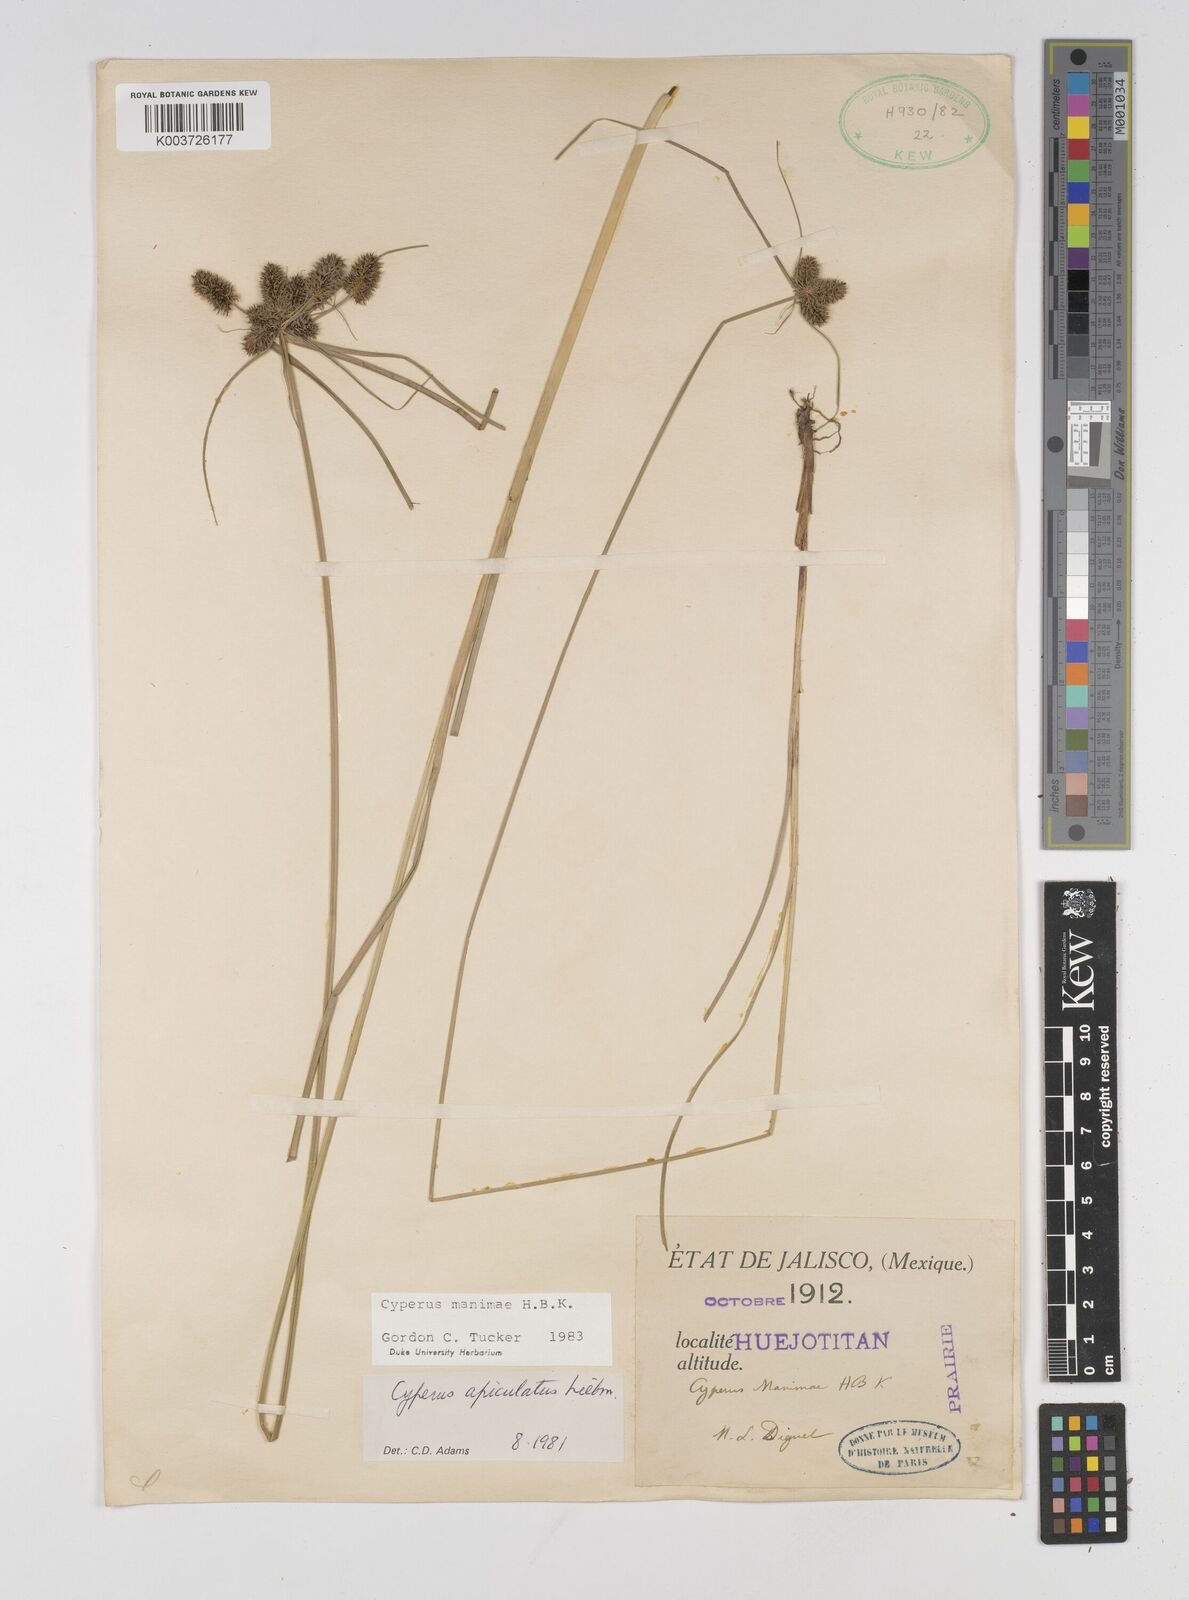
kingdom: Plantae
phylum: Tracheophyta
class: Liliopsida
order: Poales
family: Cyperaceae
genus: Cyperus
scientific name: Cyperus manimae
